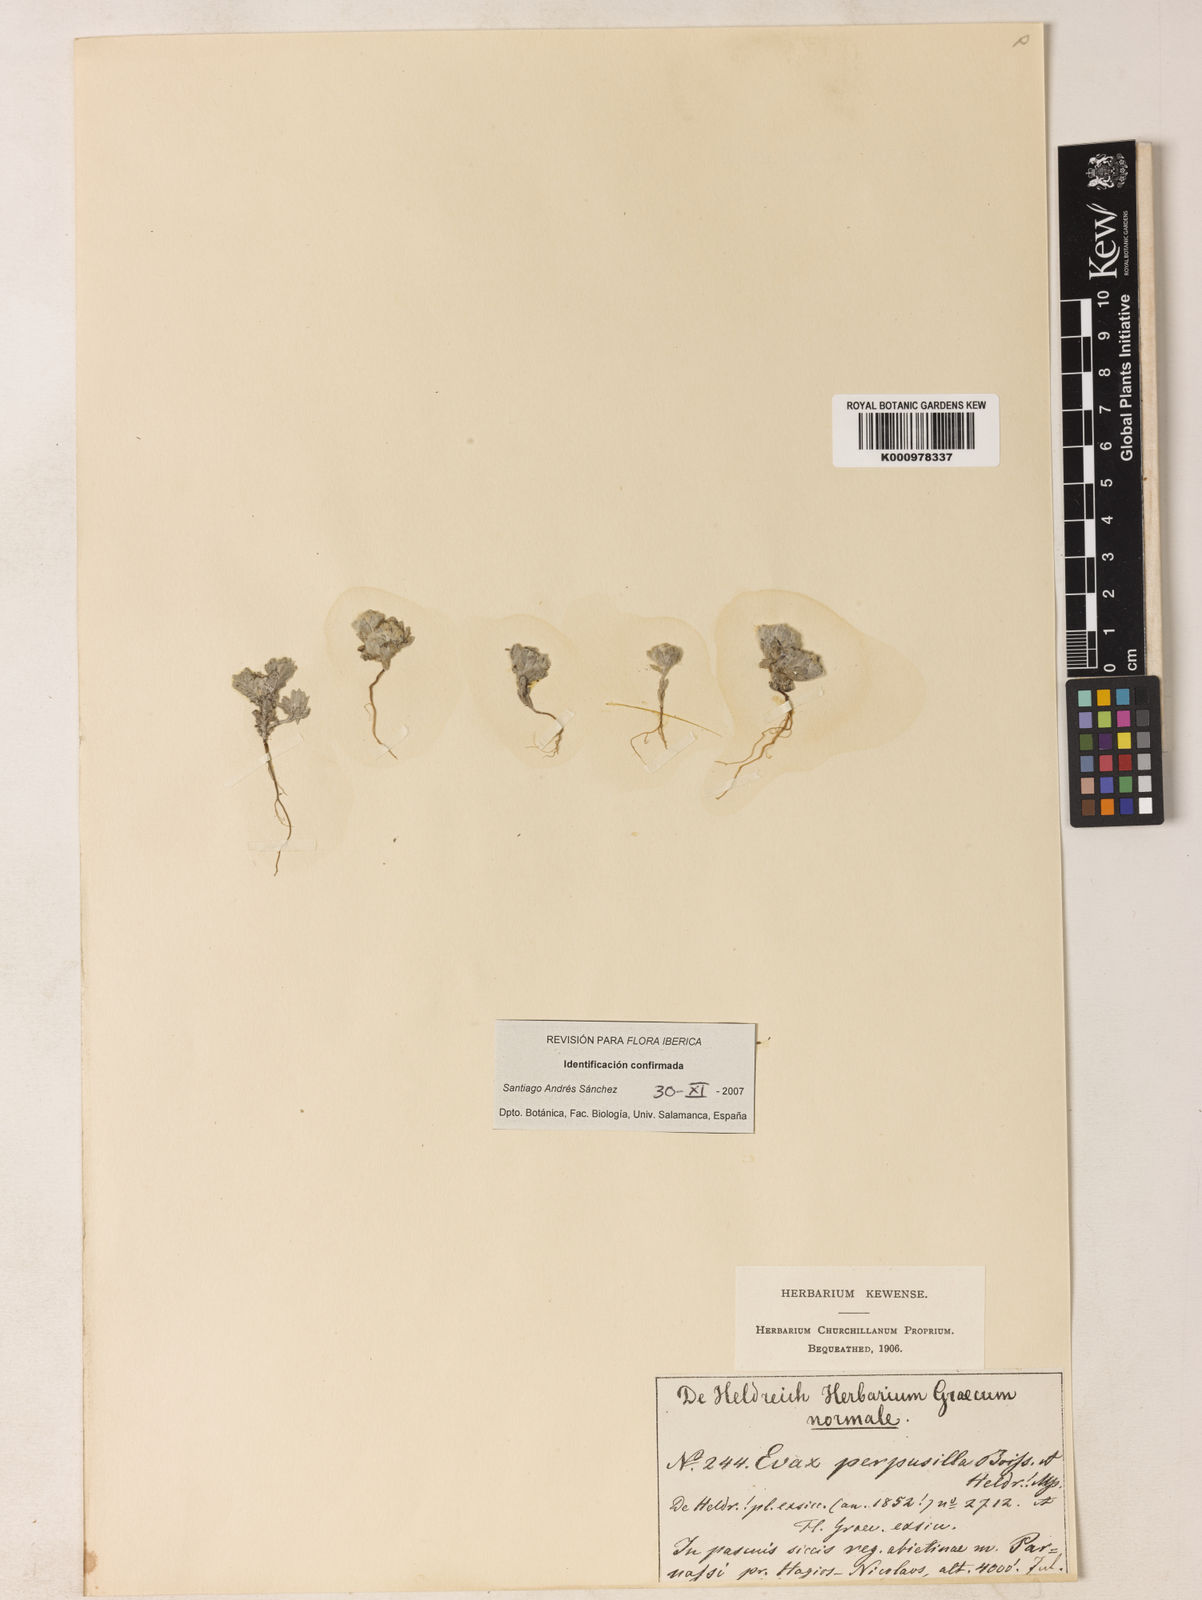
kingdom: Plantae
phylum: Tracheophyta
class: Magnoliopsida
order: Asterales
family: Asteraceae
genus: Filago
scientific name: Filago perpusilla
